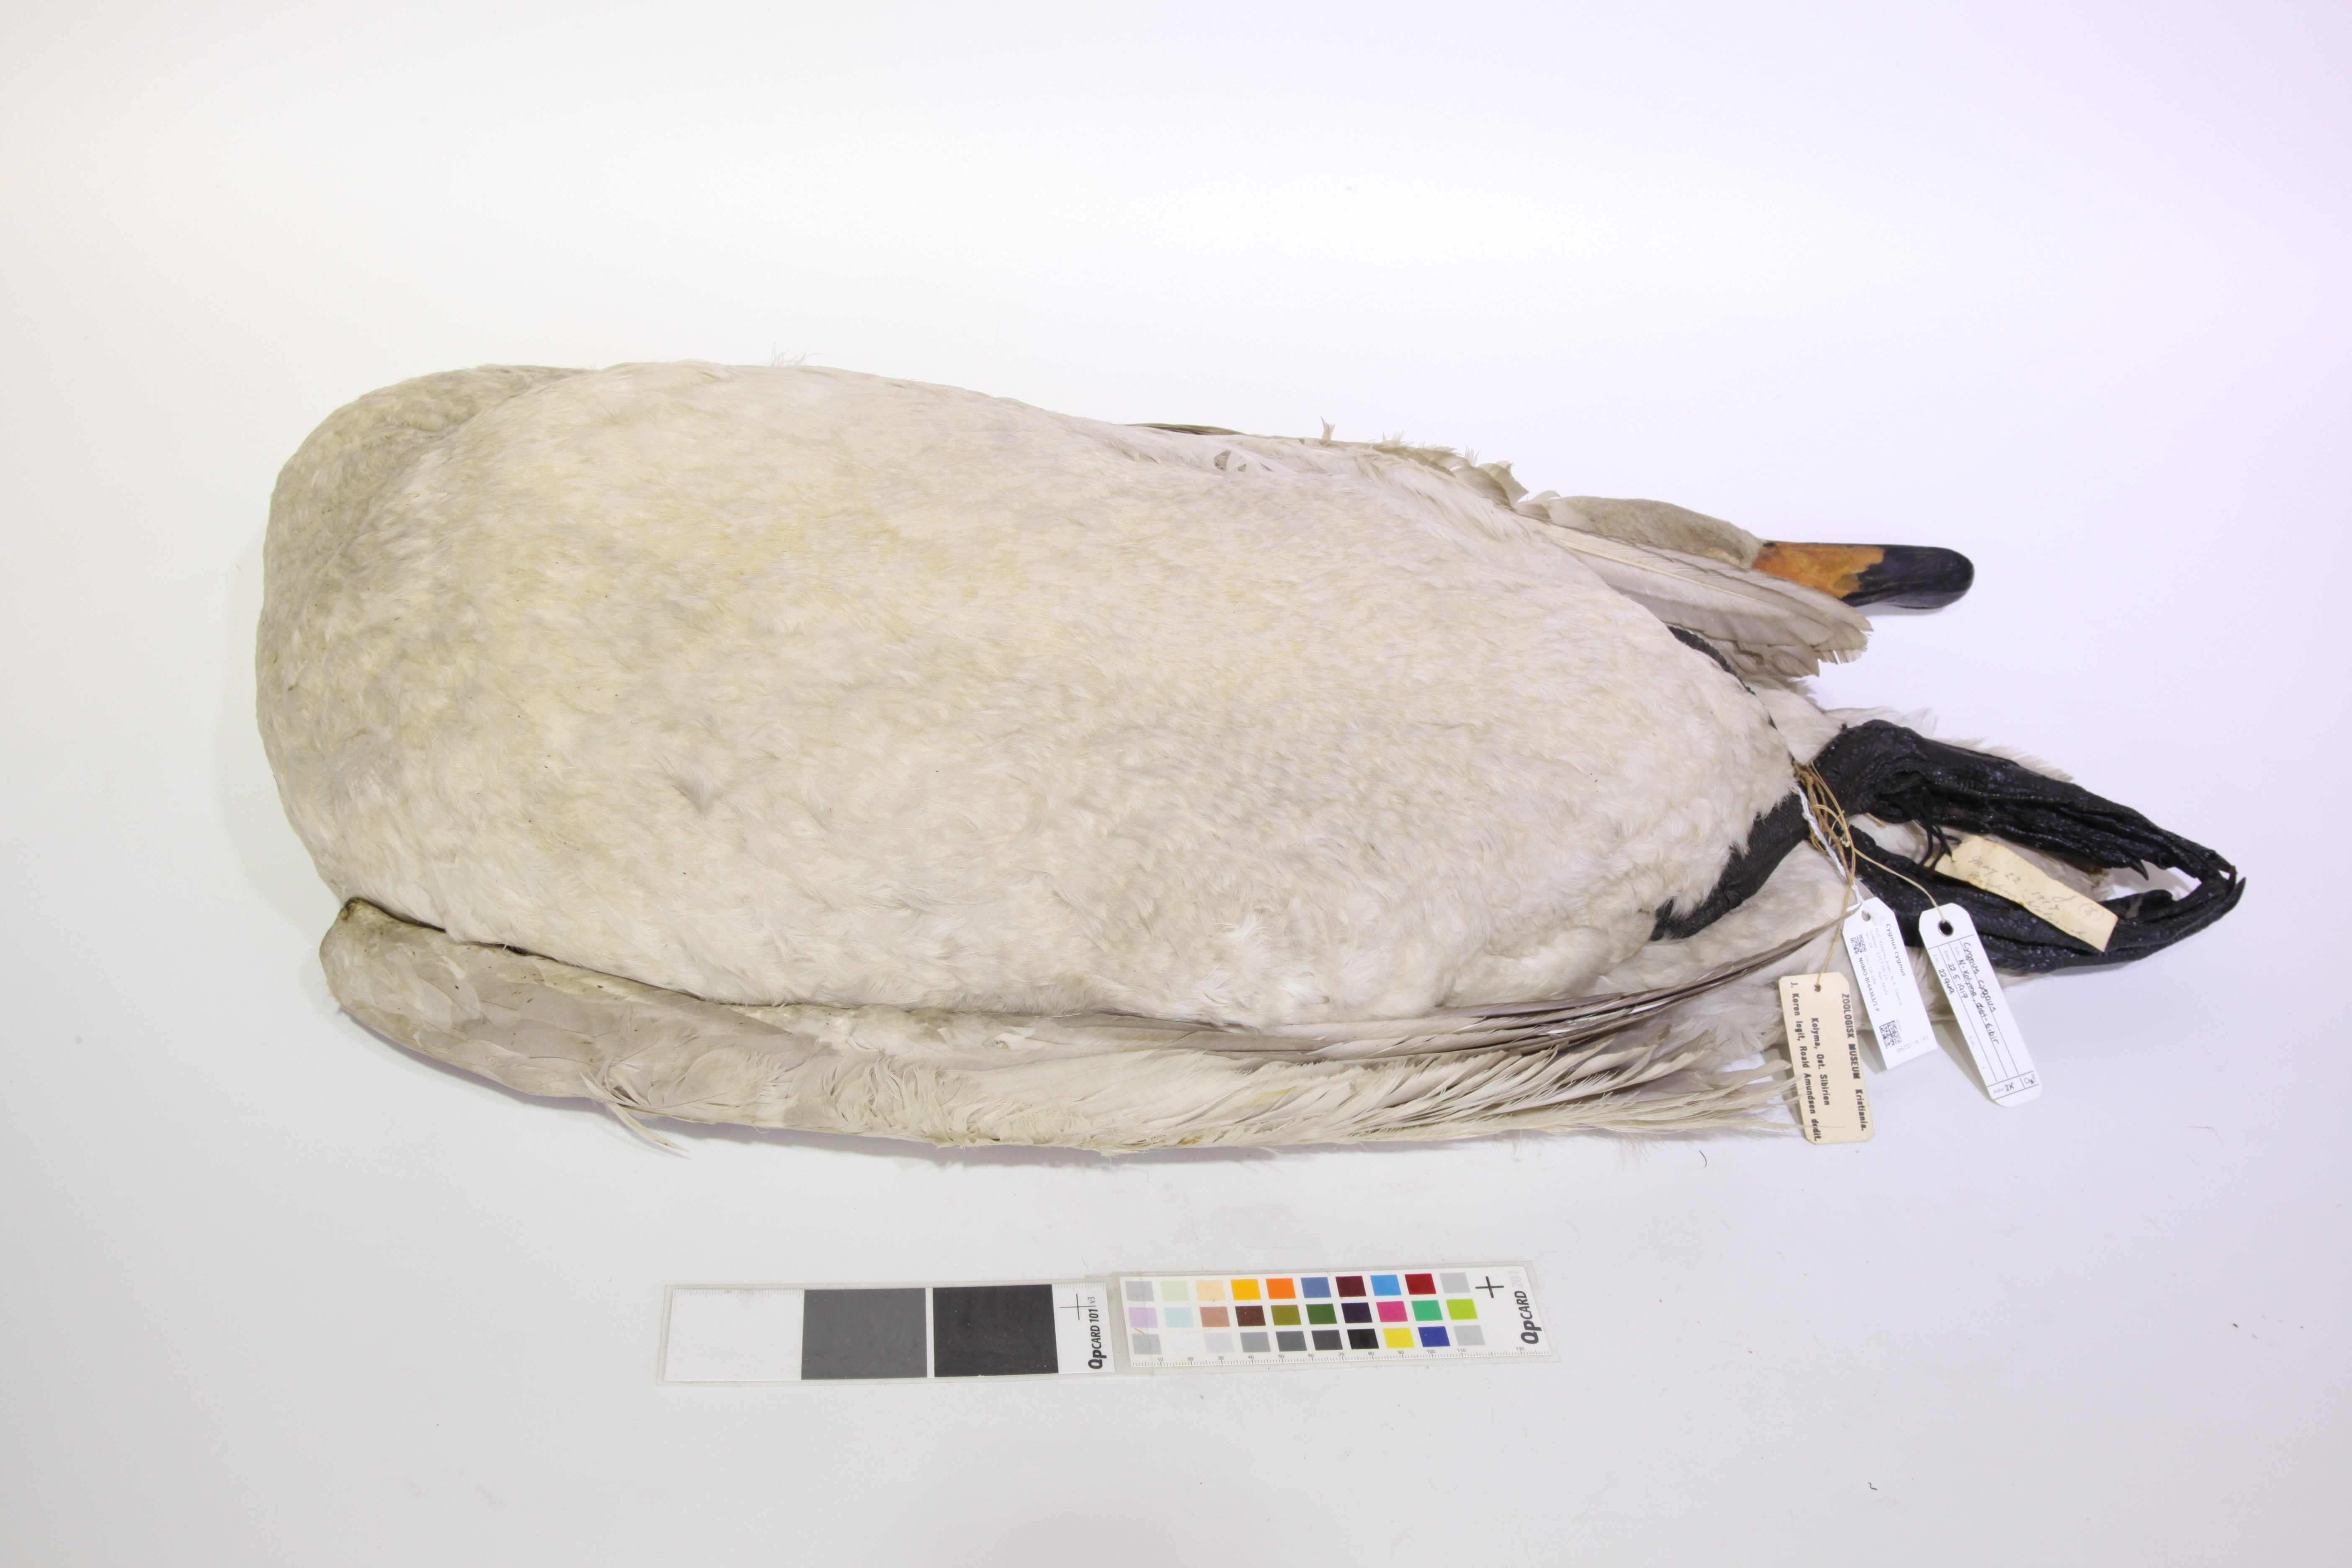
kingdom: Animalia
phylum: Chordata
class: Aves
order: Anseriformes
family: Anatidae
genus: Cygnus
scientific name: Cygnus cygnus
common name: Whooper swan
